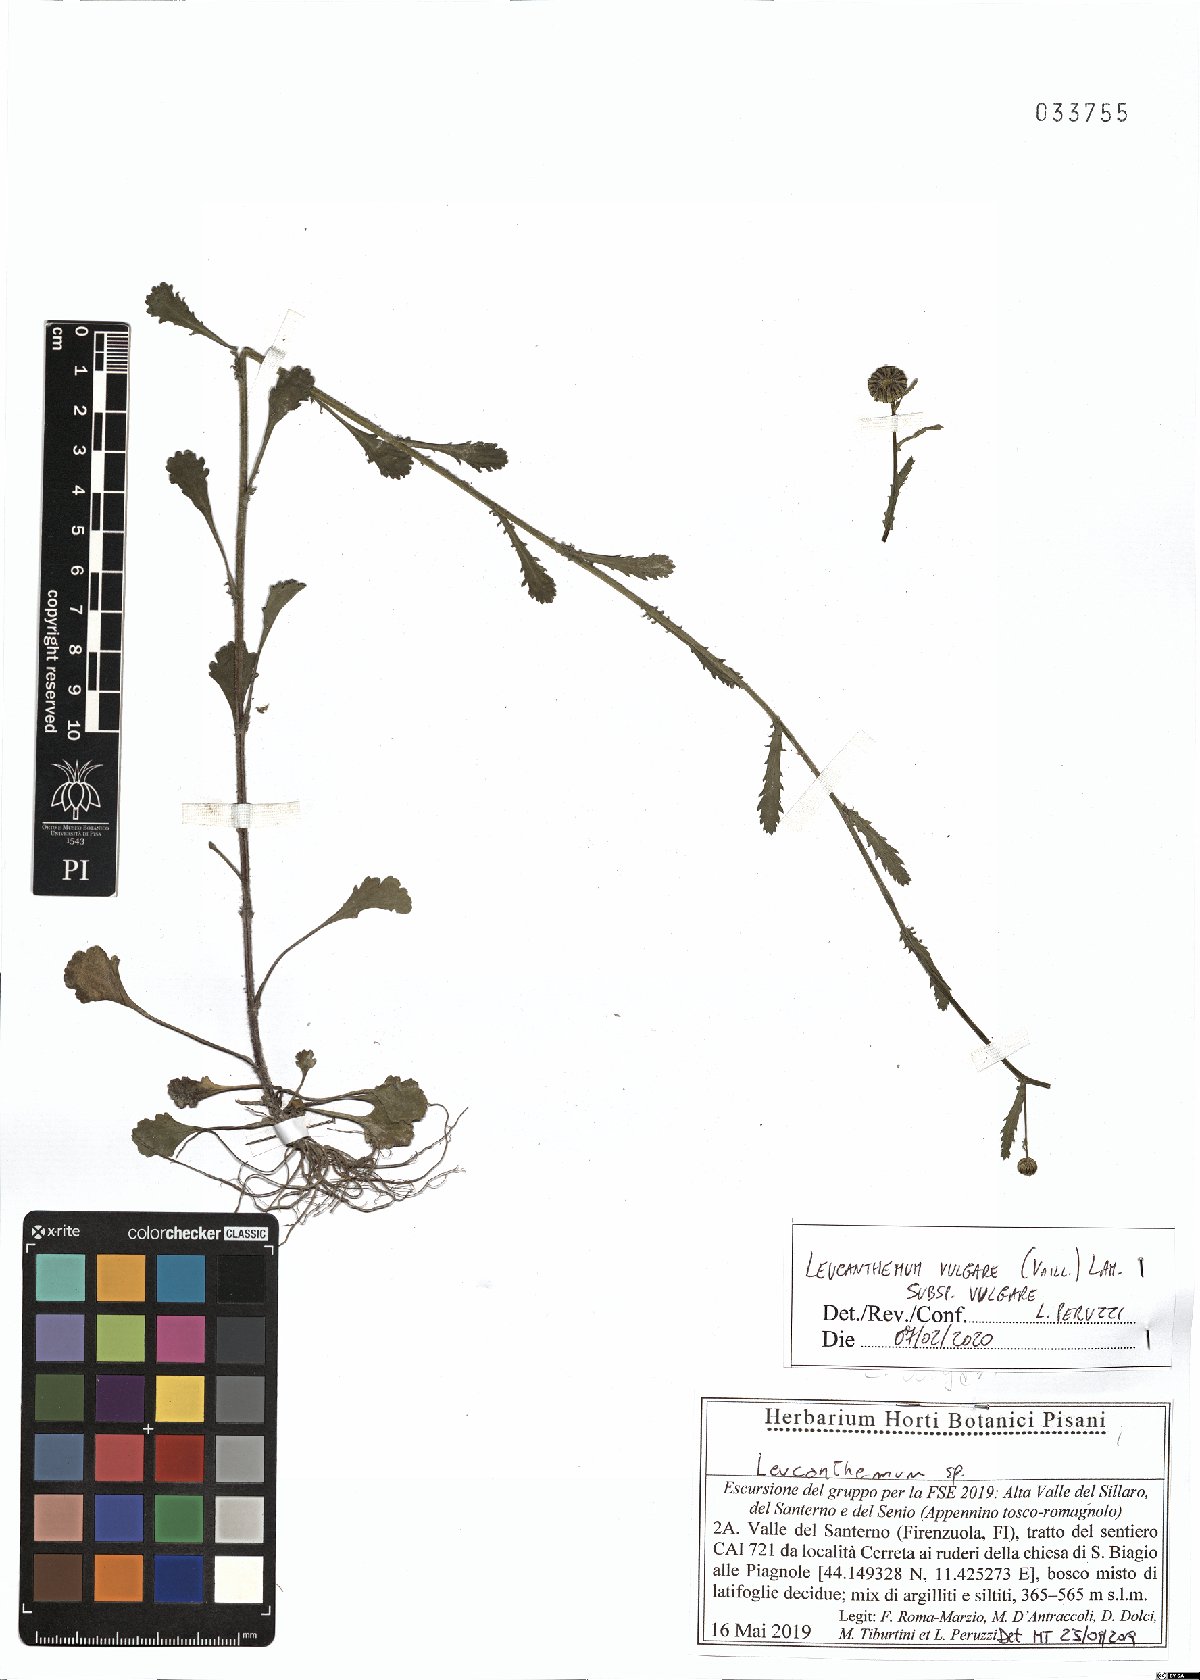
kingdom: Plantae
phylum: Tracheophyta
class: Magnoliopsida
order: Asterales
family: Asteraceae
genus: Leucanthemum
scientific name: Leucanthemum vulgare
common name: Oxeye daisy
